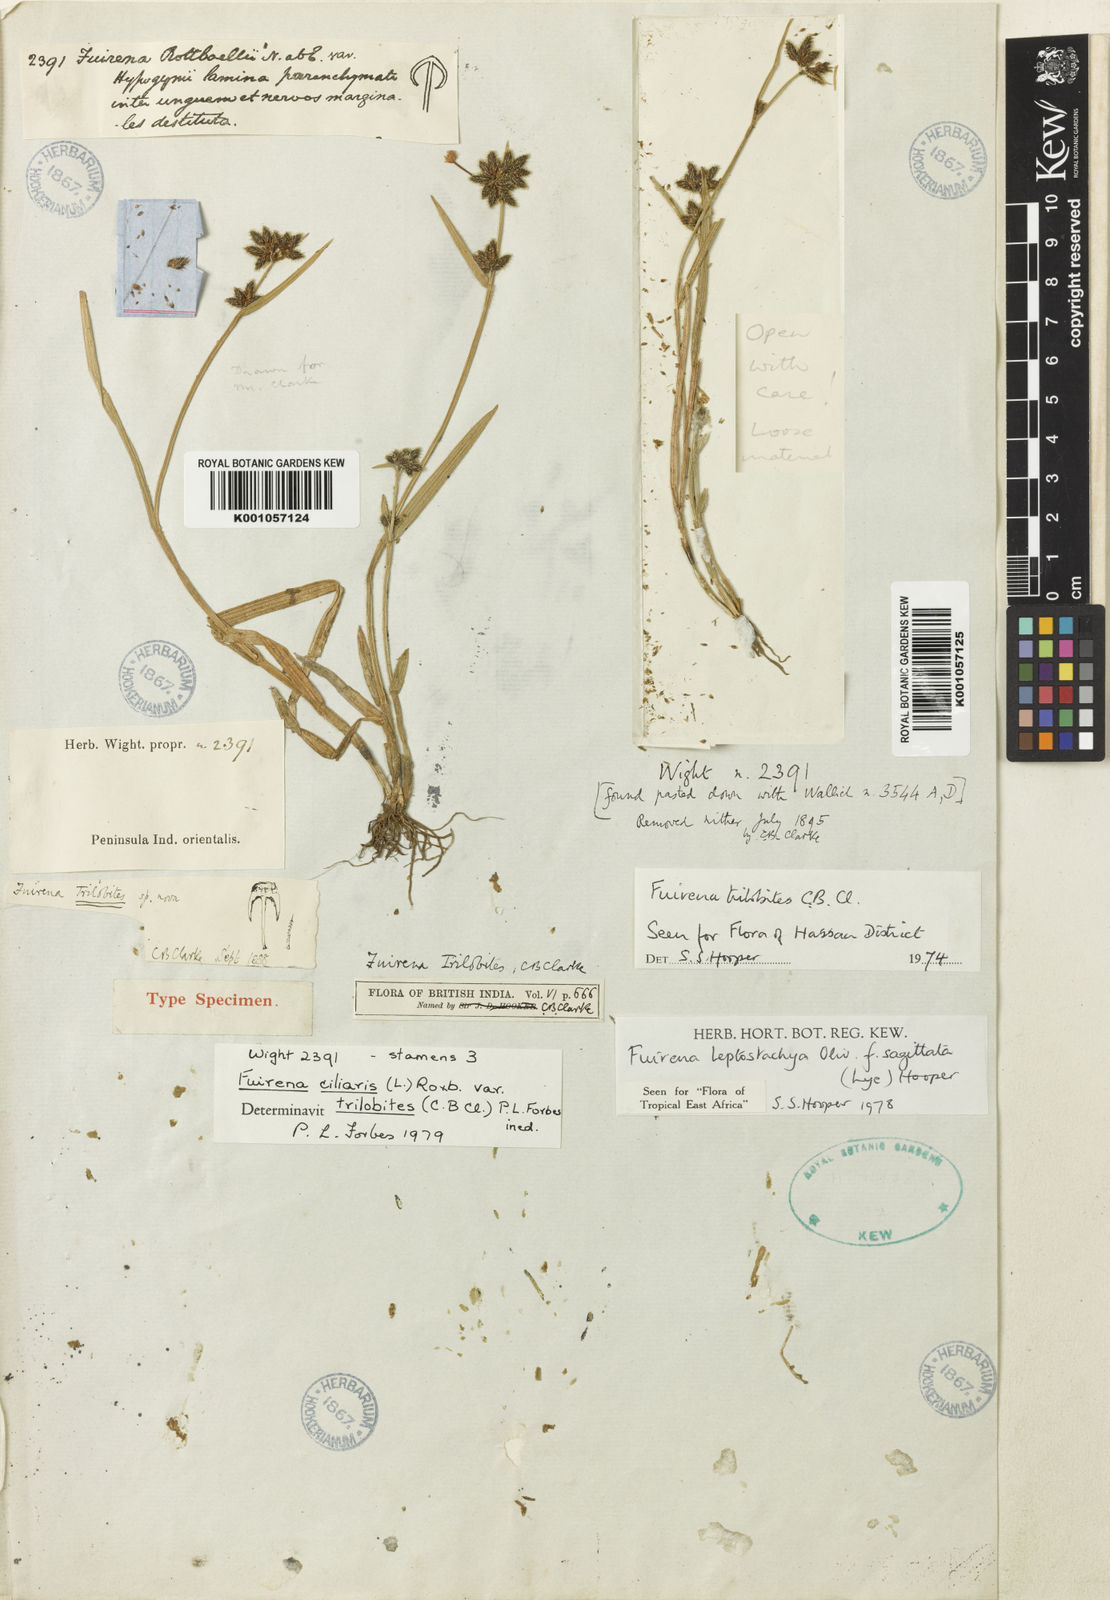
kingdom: Plantae
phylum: Tracheophyta
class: Liliopsida
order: Poales
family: Cyperaceae
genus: Fuirena
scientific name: Fuirena trilobites
